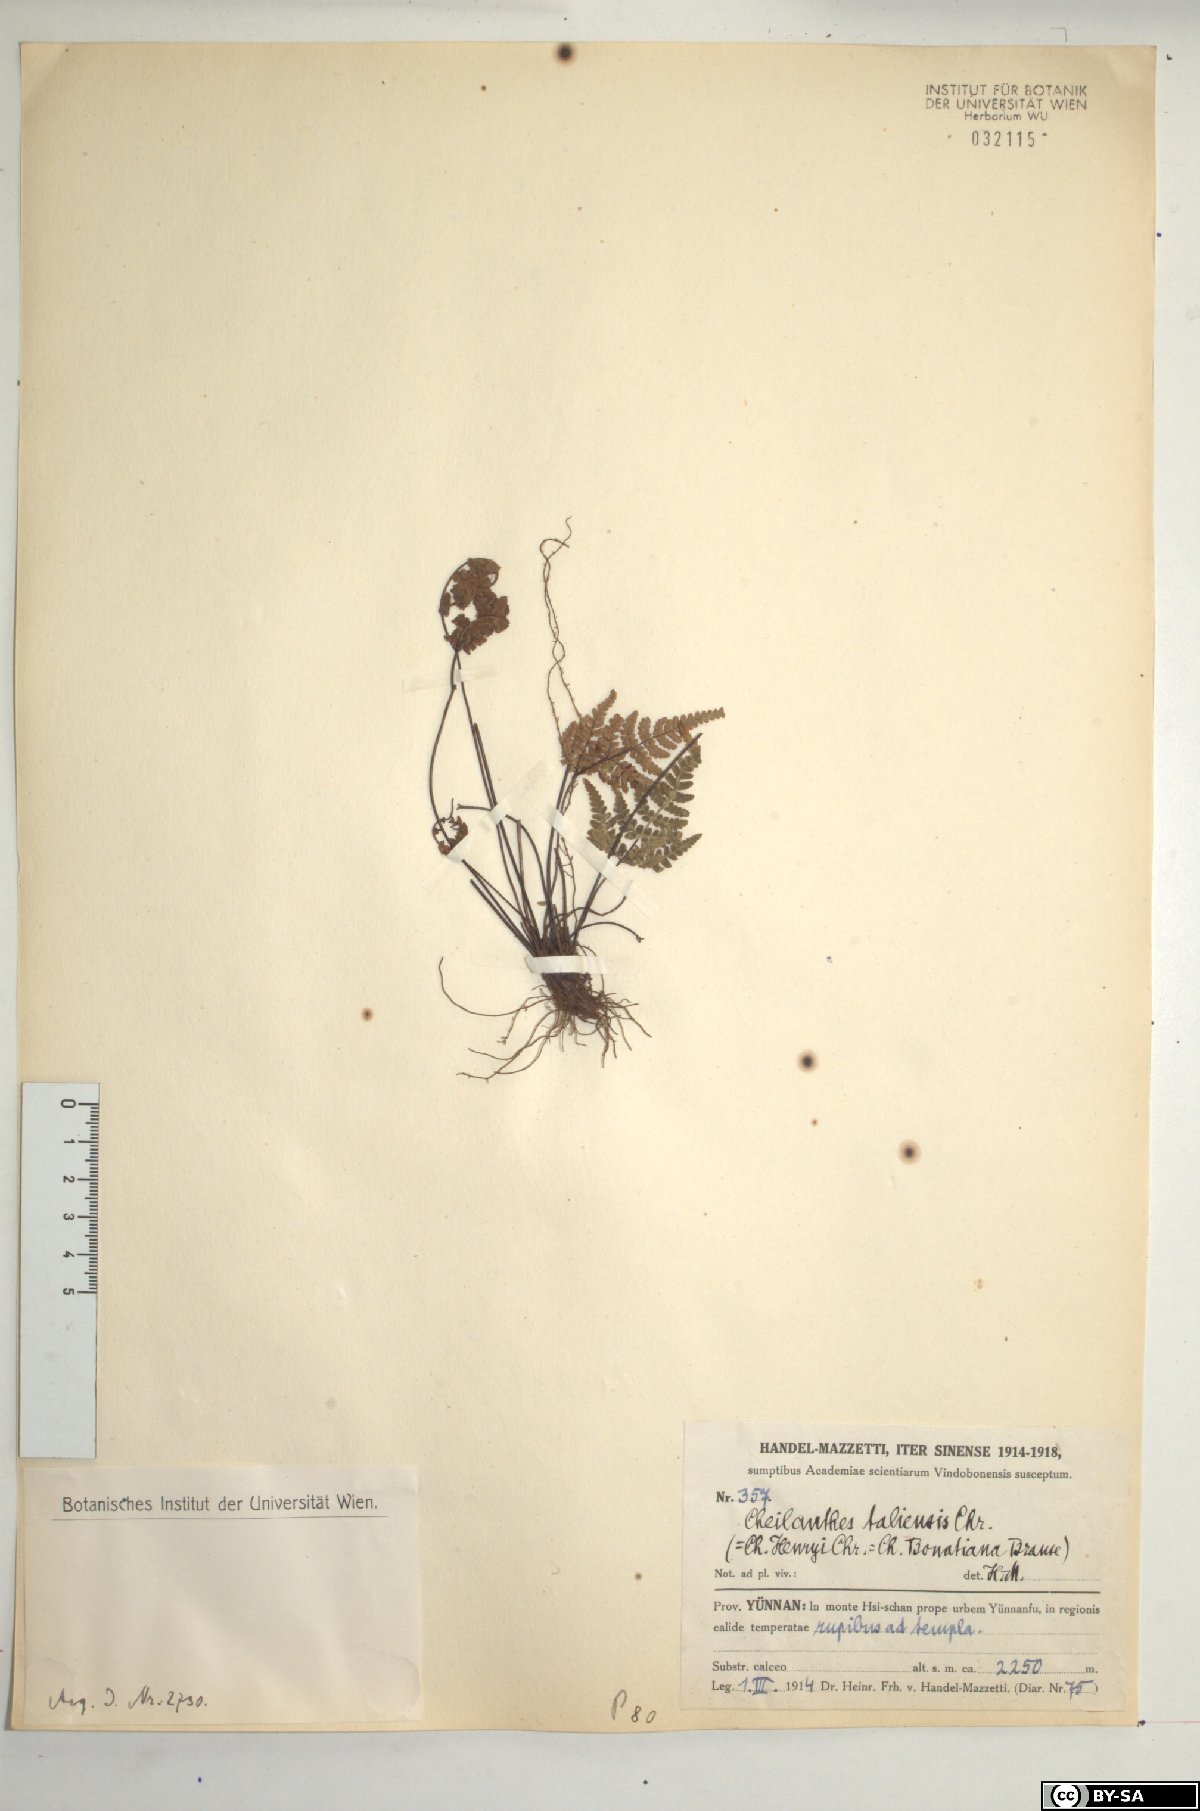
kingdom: Plantae
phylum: Tracheophyta
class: Polypodiopsida
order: Polypodiales
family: Pteridaceae
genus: Oeosporangium
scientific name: Oeosporangium hancockii
